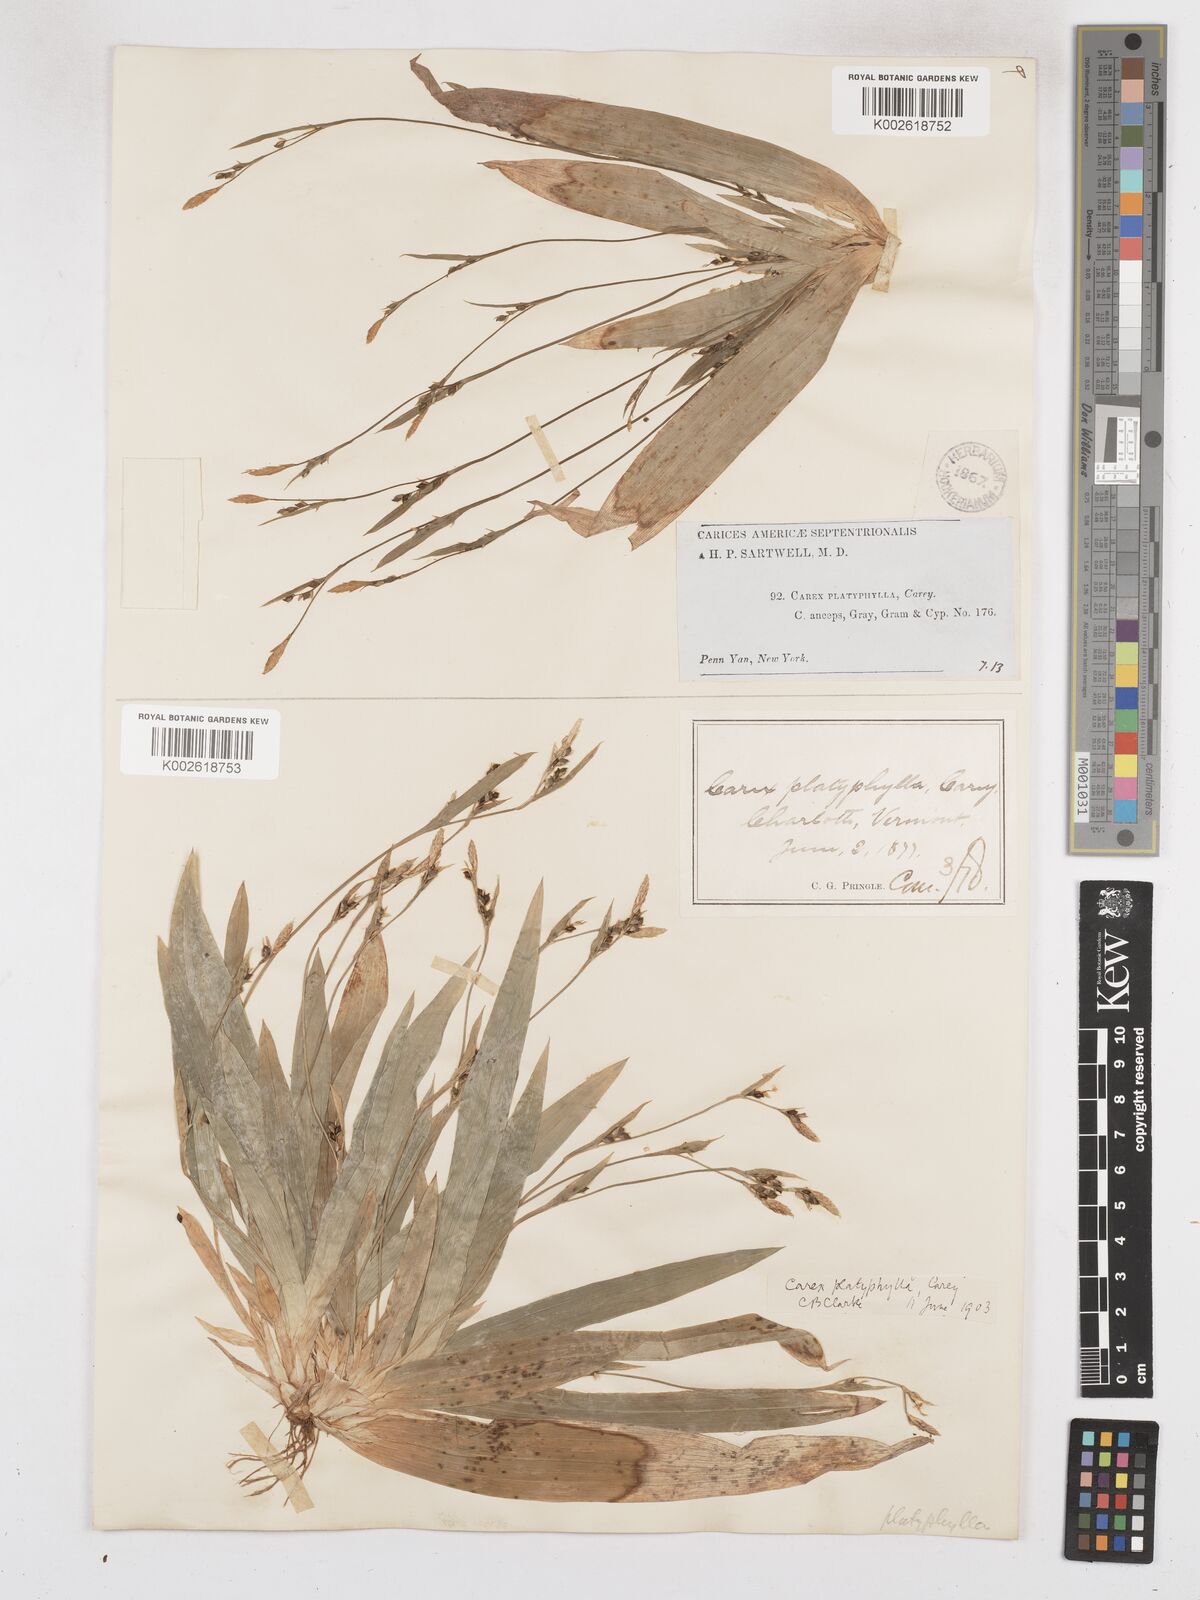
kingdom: Plantae
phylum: Tracheophyta
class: Liliopsida
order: Poales
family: Cyperaceae
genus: Carex
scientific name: Carex platyphylla
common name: Broad-leaved sedge
